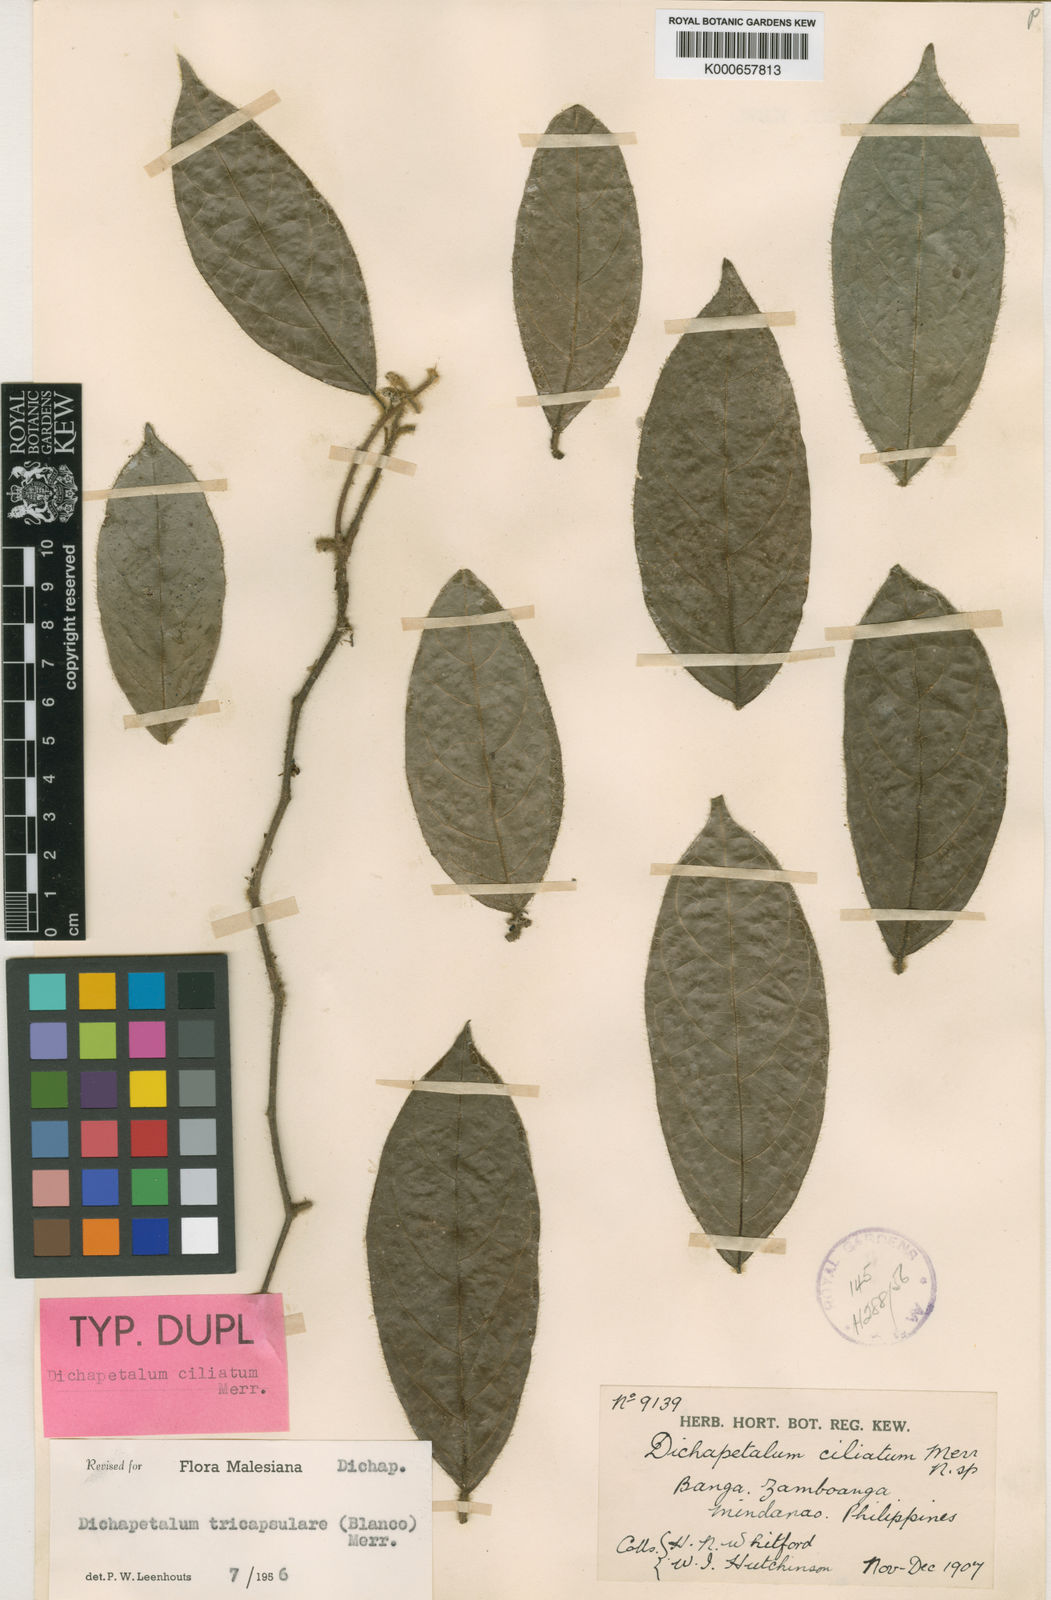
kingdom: Plantae
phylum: Tracheophyta
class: Magnoliopsida
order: Malpighiales
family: Dichapetalaceae
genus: Dichapetalum
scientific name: Dichapetalum tricapsulare
